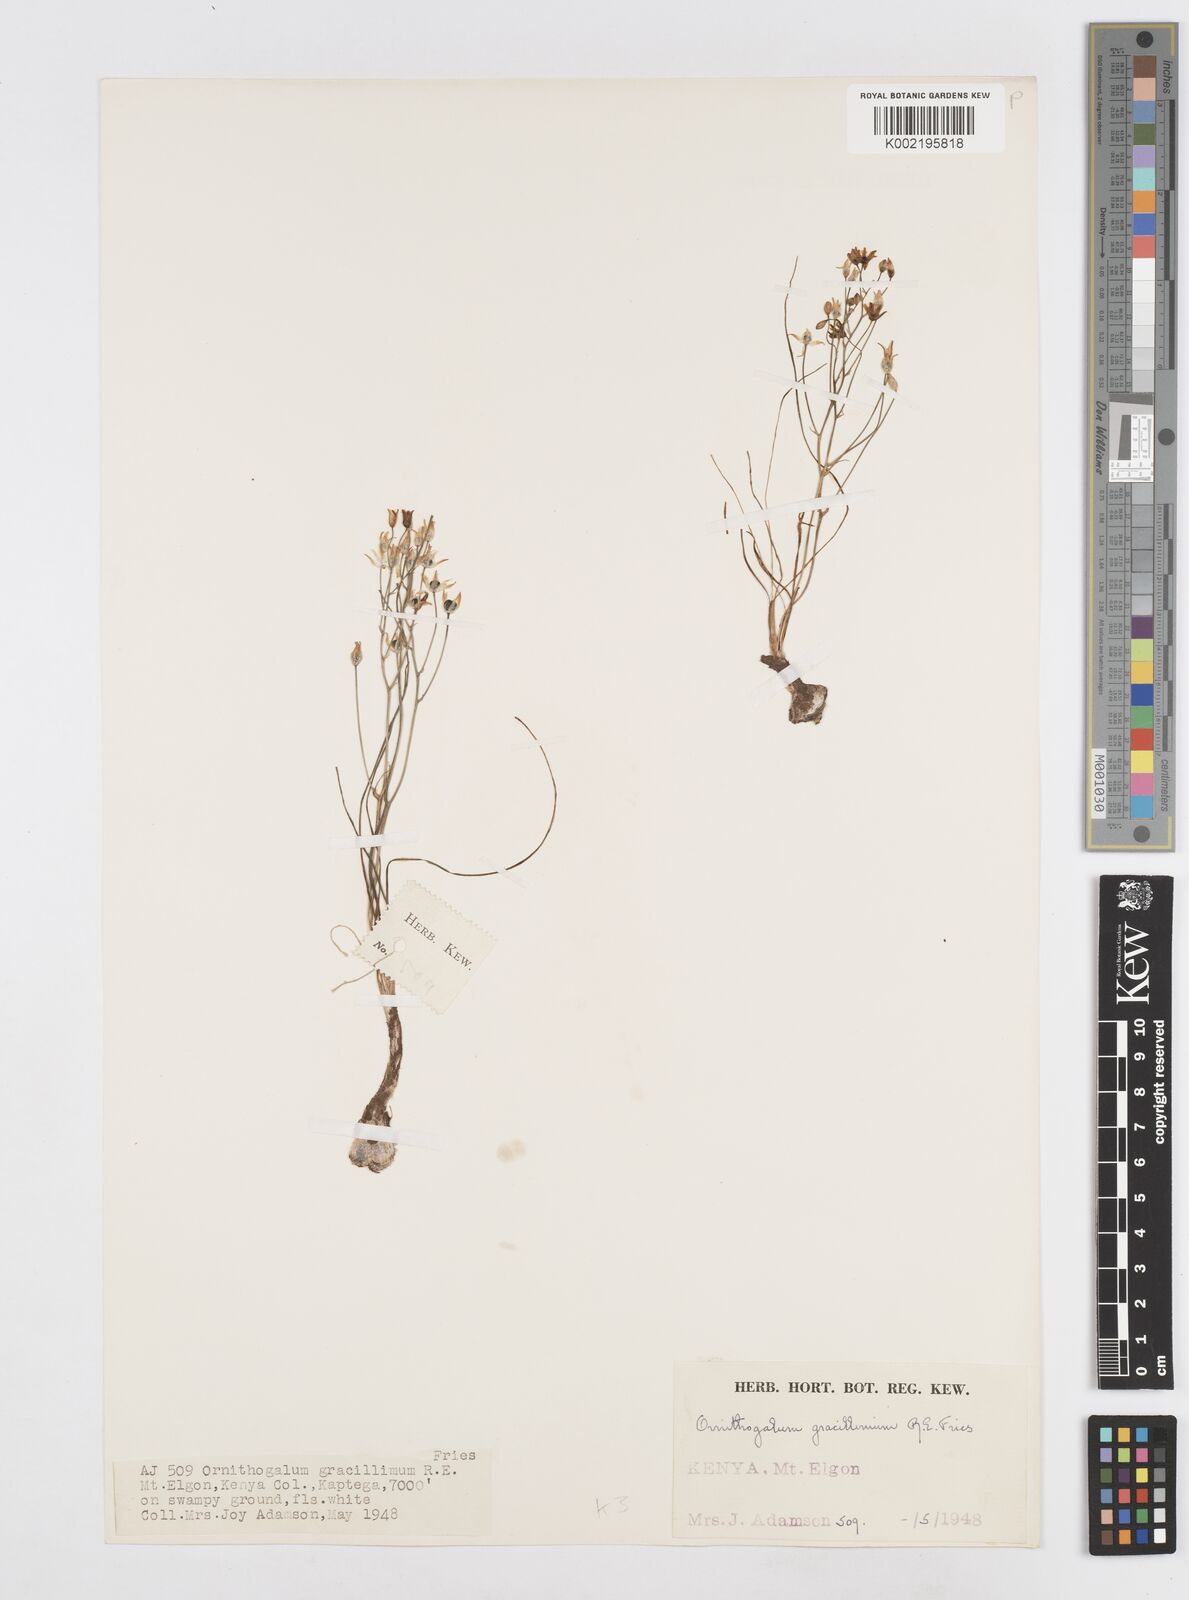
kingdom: Plantae
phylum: Tracheophyta
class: Liliopsida
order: Asparagales
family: Asparagaceae
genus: Ornithogalum
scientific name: Ornithogalum gracillimum
